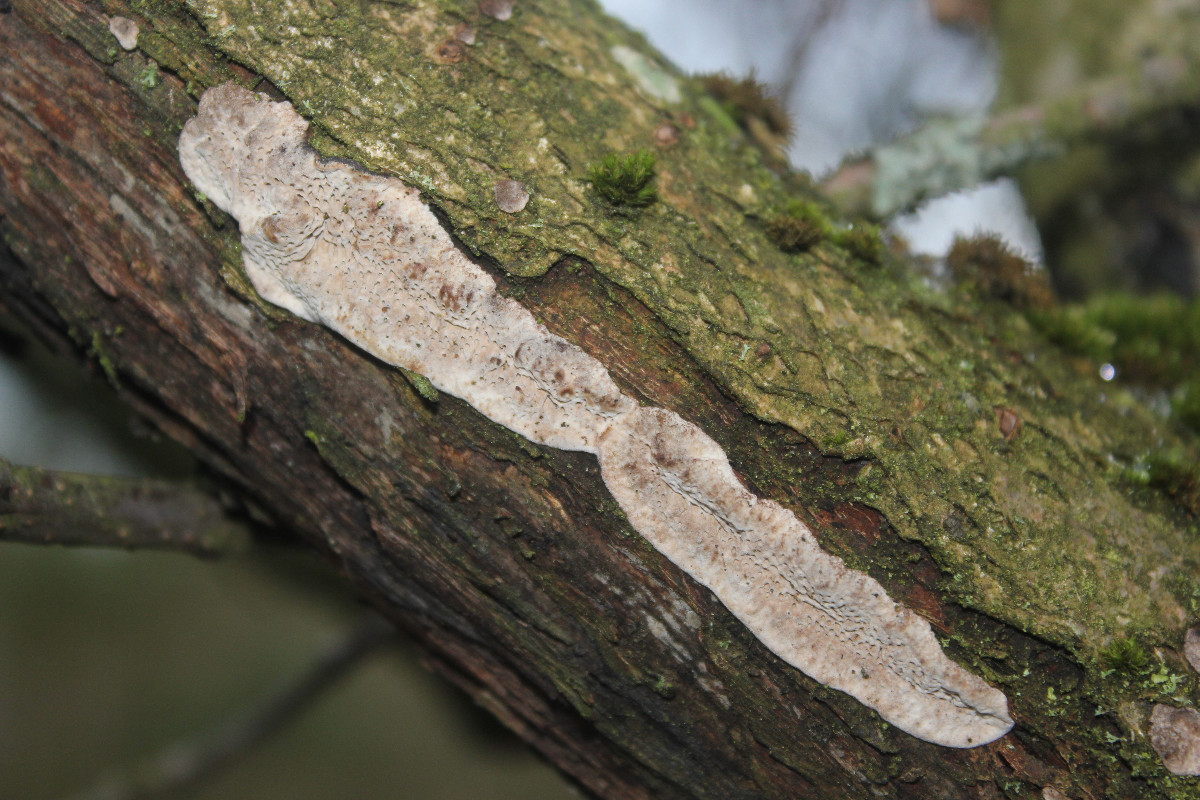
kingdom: Fungi
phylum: Basidiomycota
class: Agaricomycetes
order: Polyporales
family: Polyporaceae
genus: Podofomes
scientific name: Podofomes mollis
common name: blød begporesvamp
